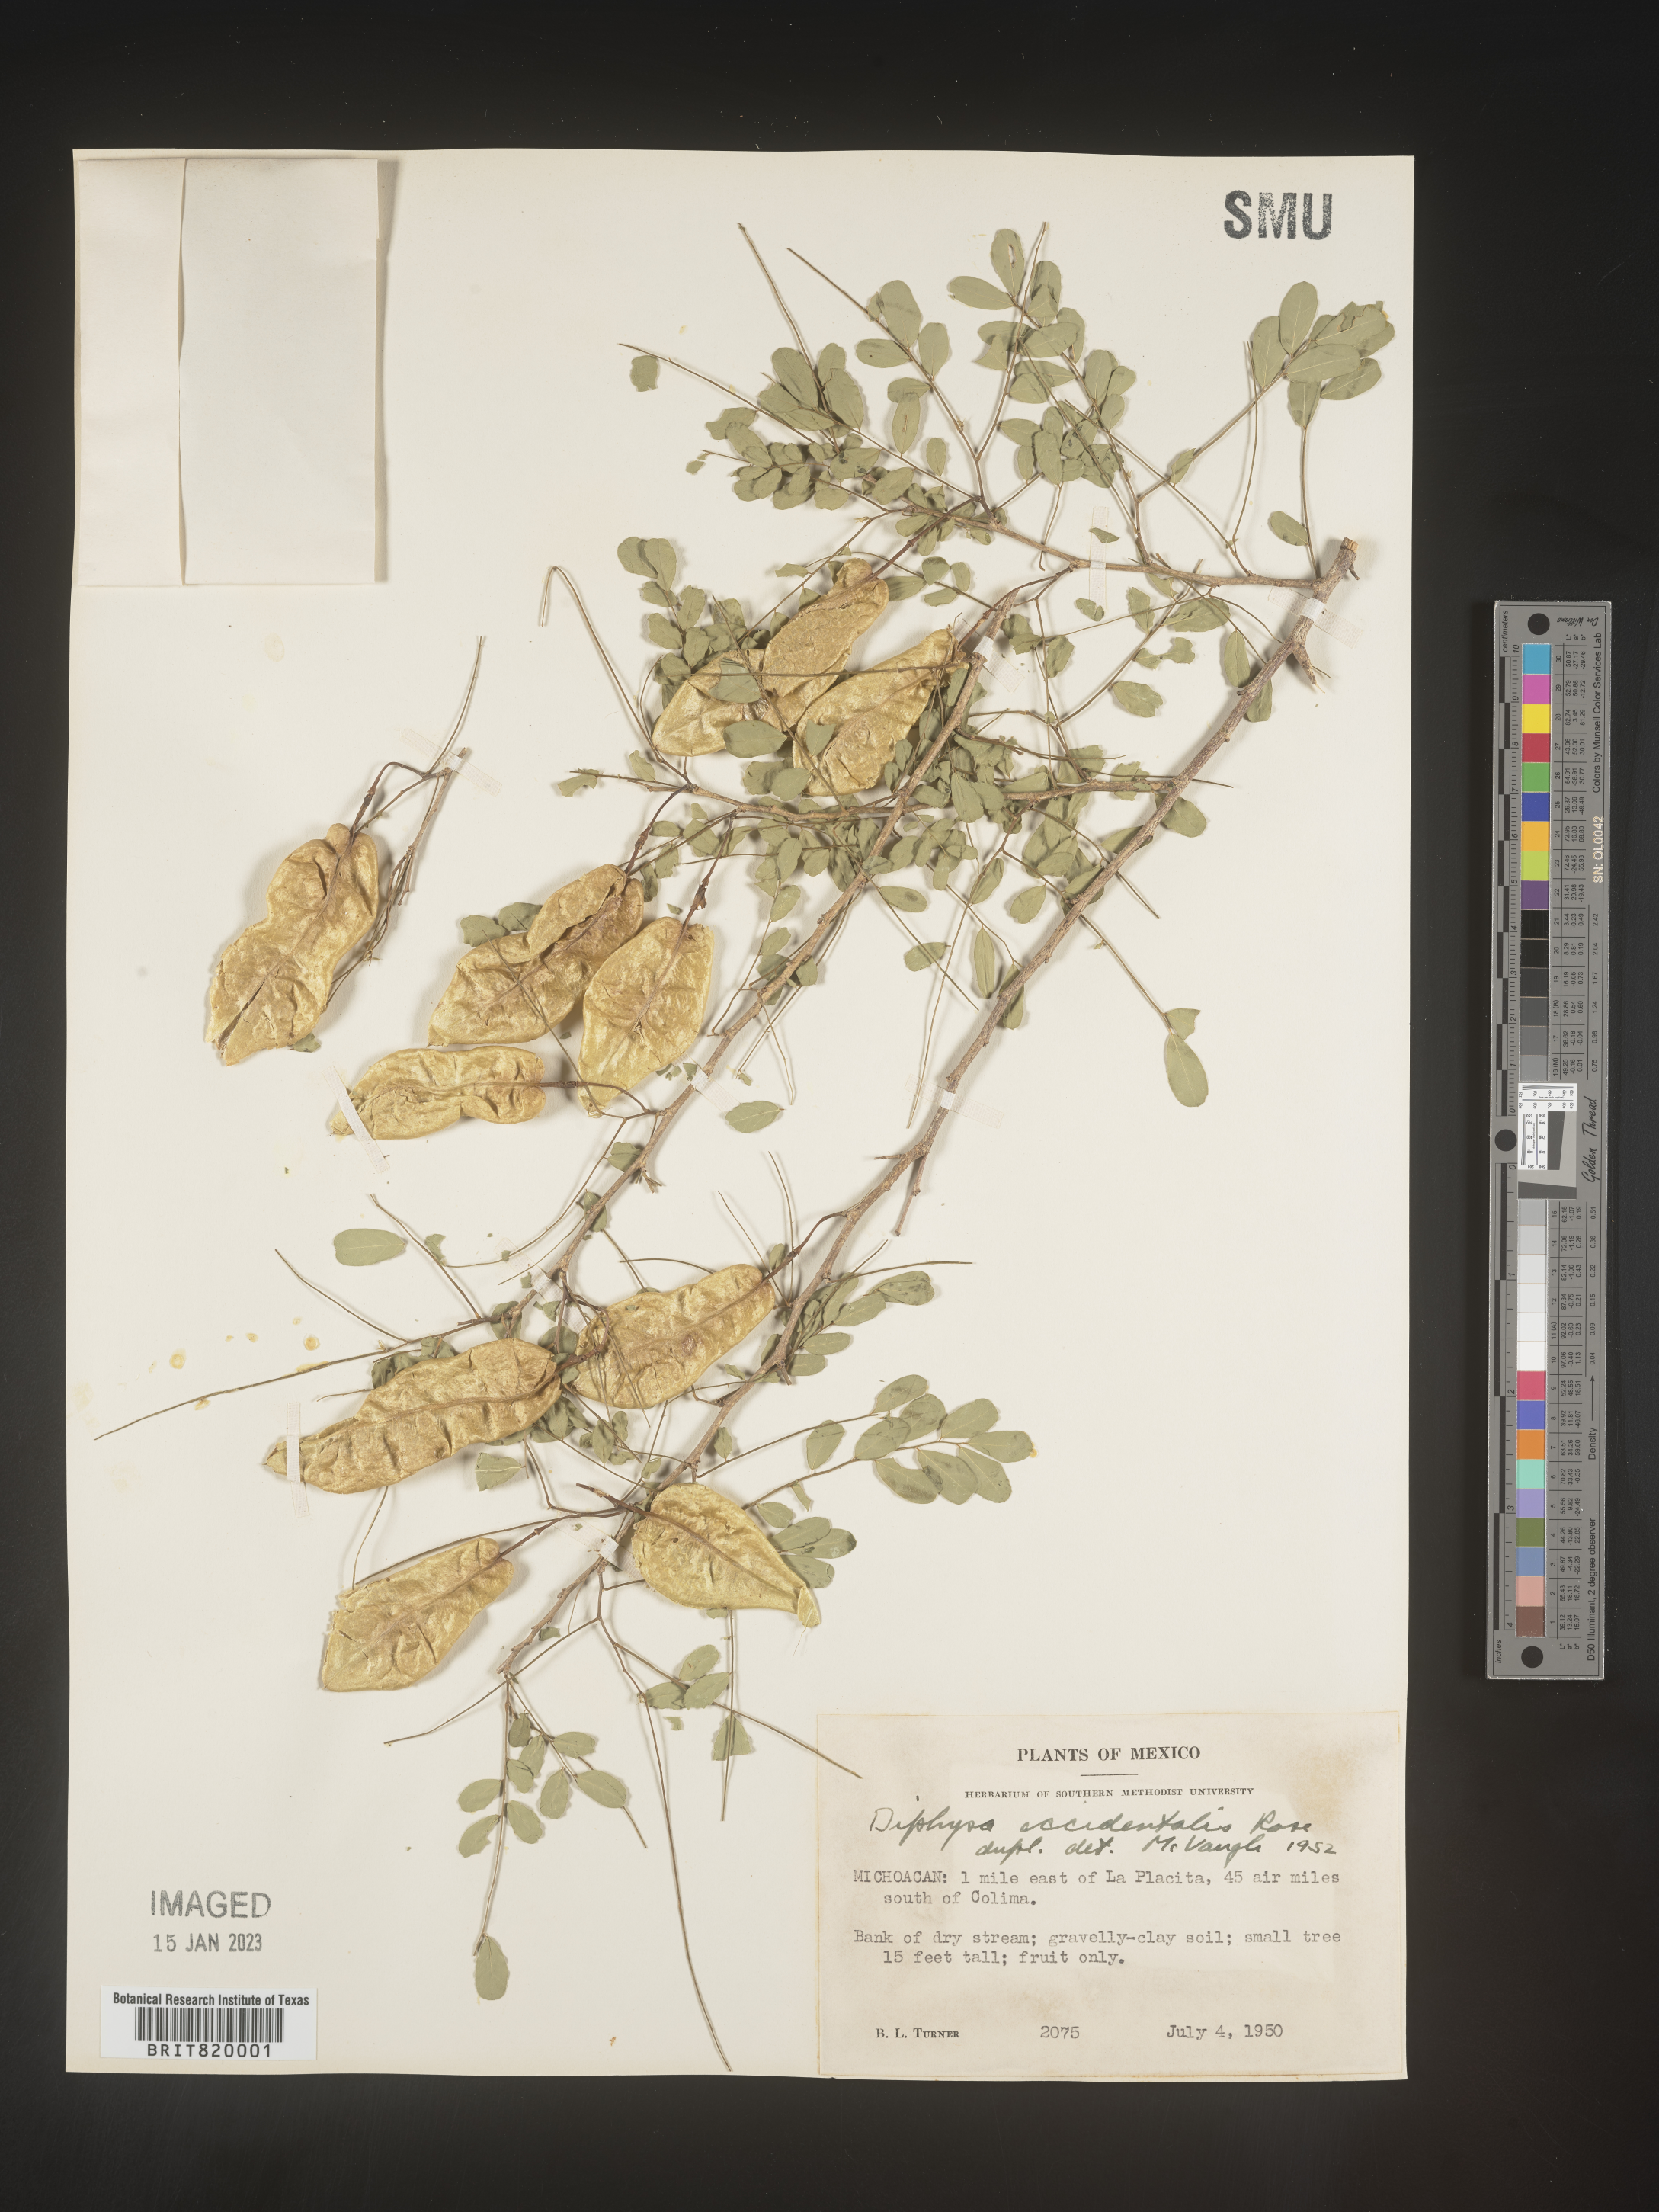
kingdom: Plantae
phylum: Tracheophyta
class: Magnoliopsida
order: Fabales
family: Fabaceae
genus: Diphysa
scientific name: Diphysa
